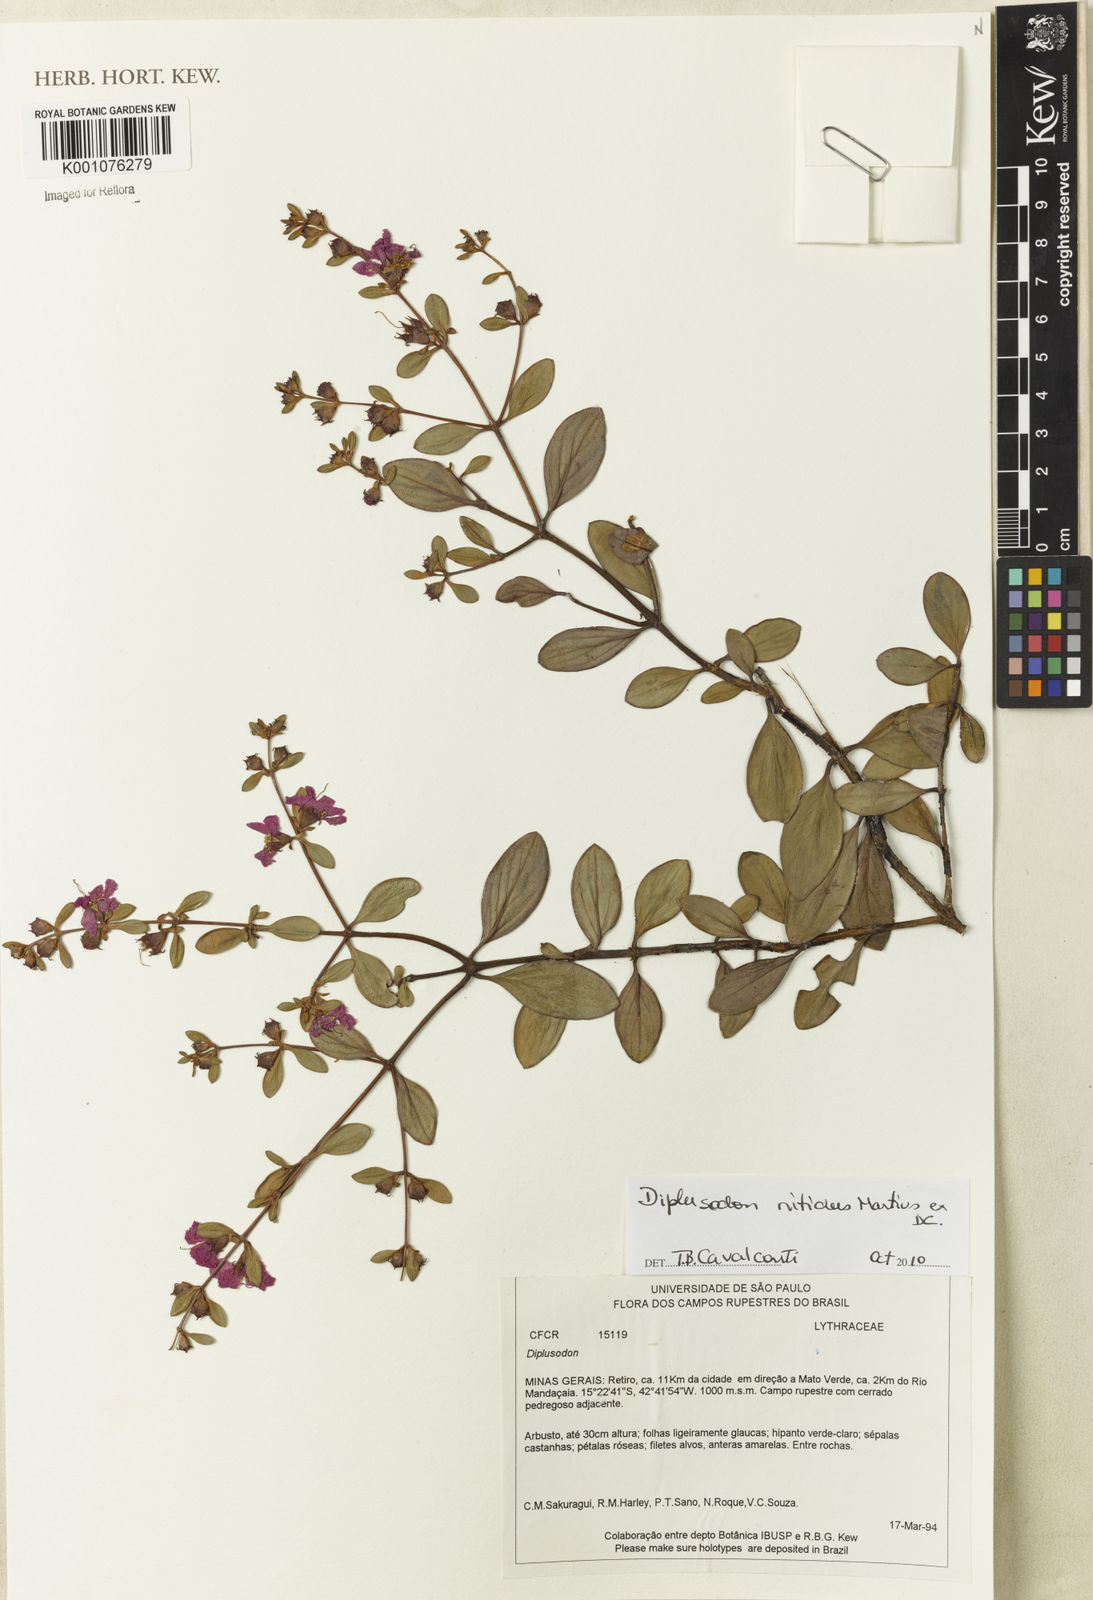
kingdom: Plantae
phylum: Tracheophyta
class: Magnoliopsida
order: Myrtales
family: Lythraceae
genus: Diplusodon
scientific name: Diplusodon nitidus
